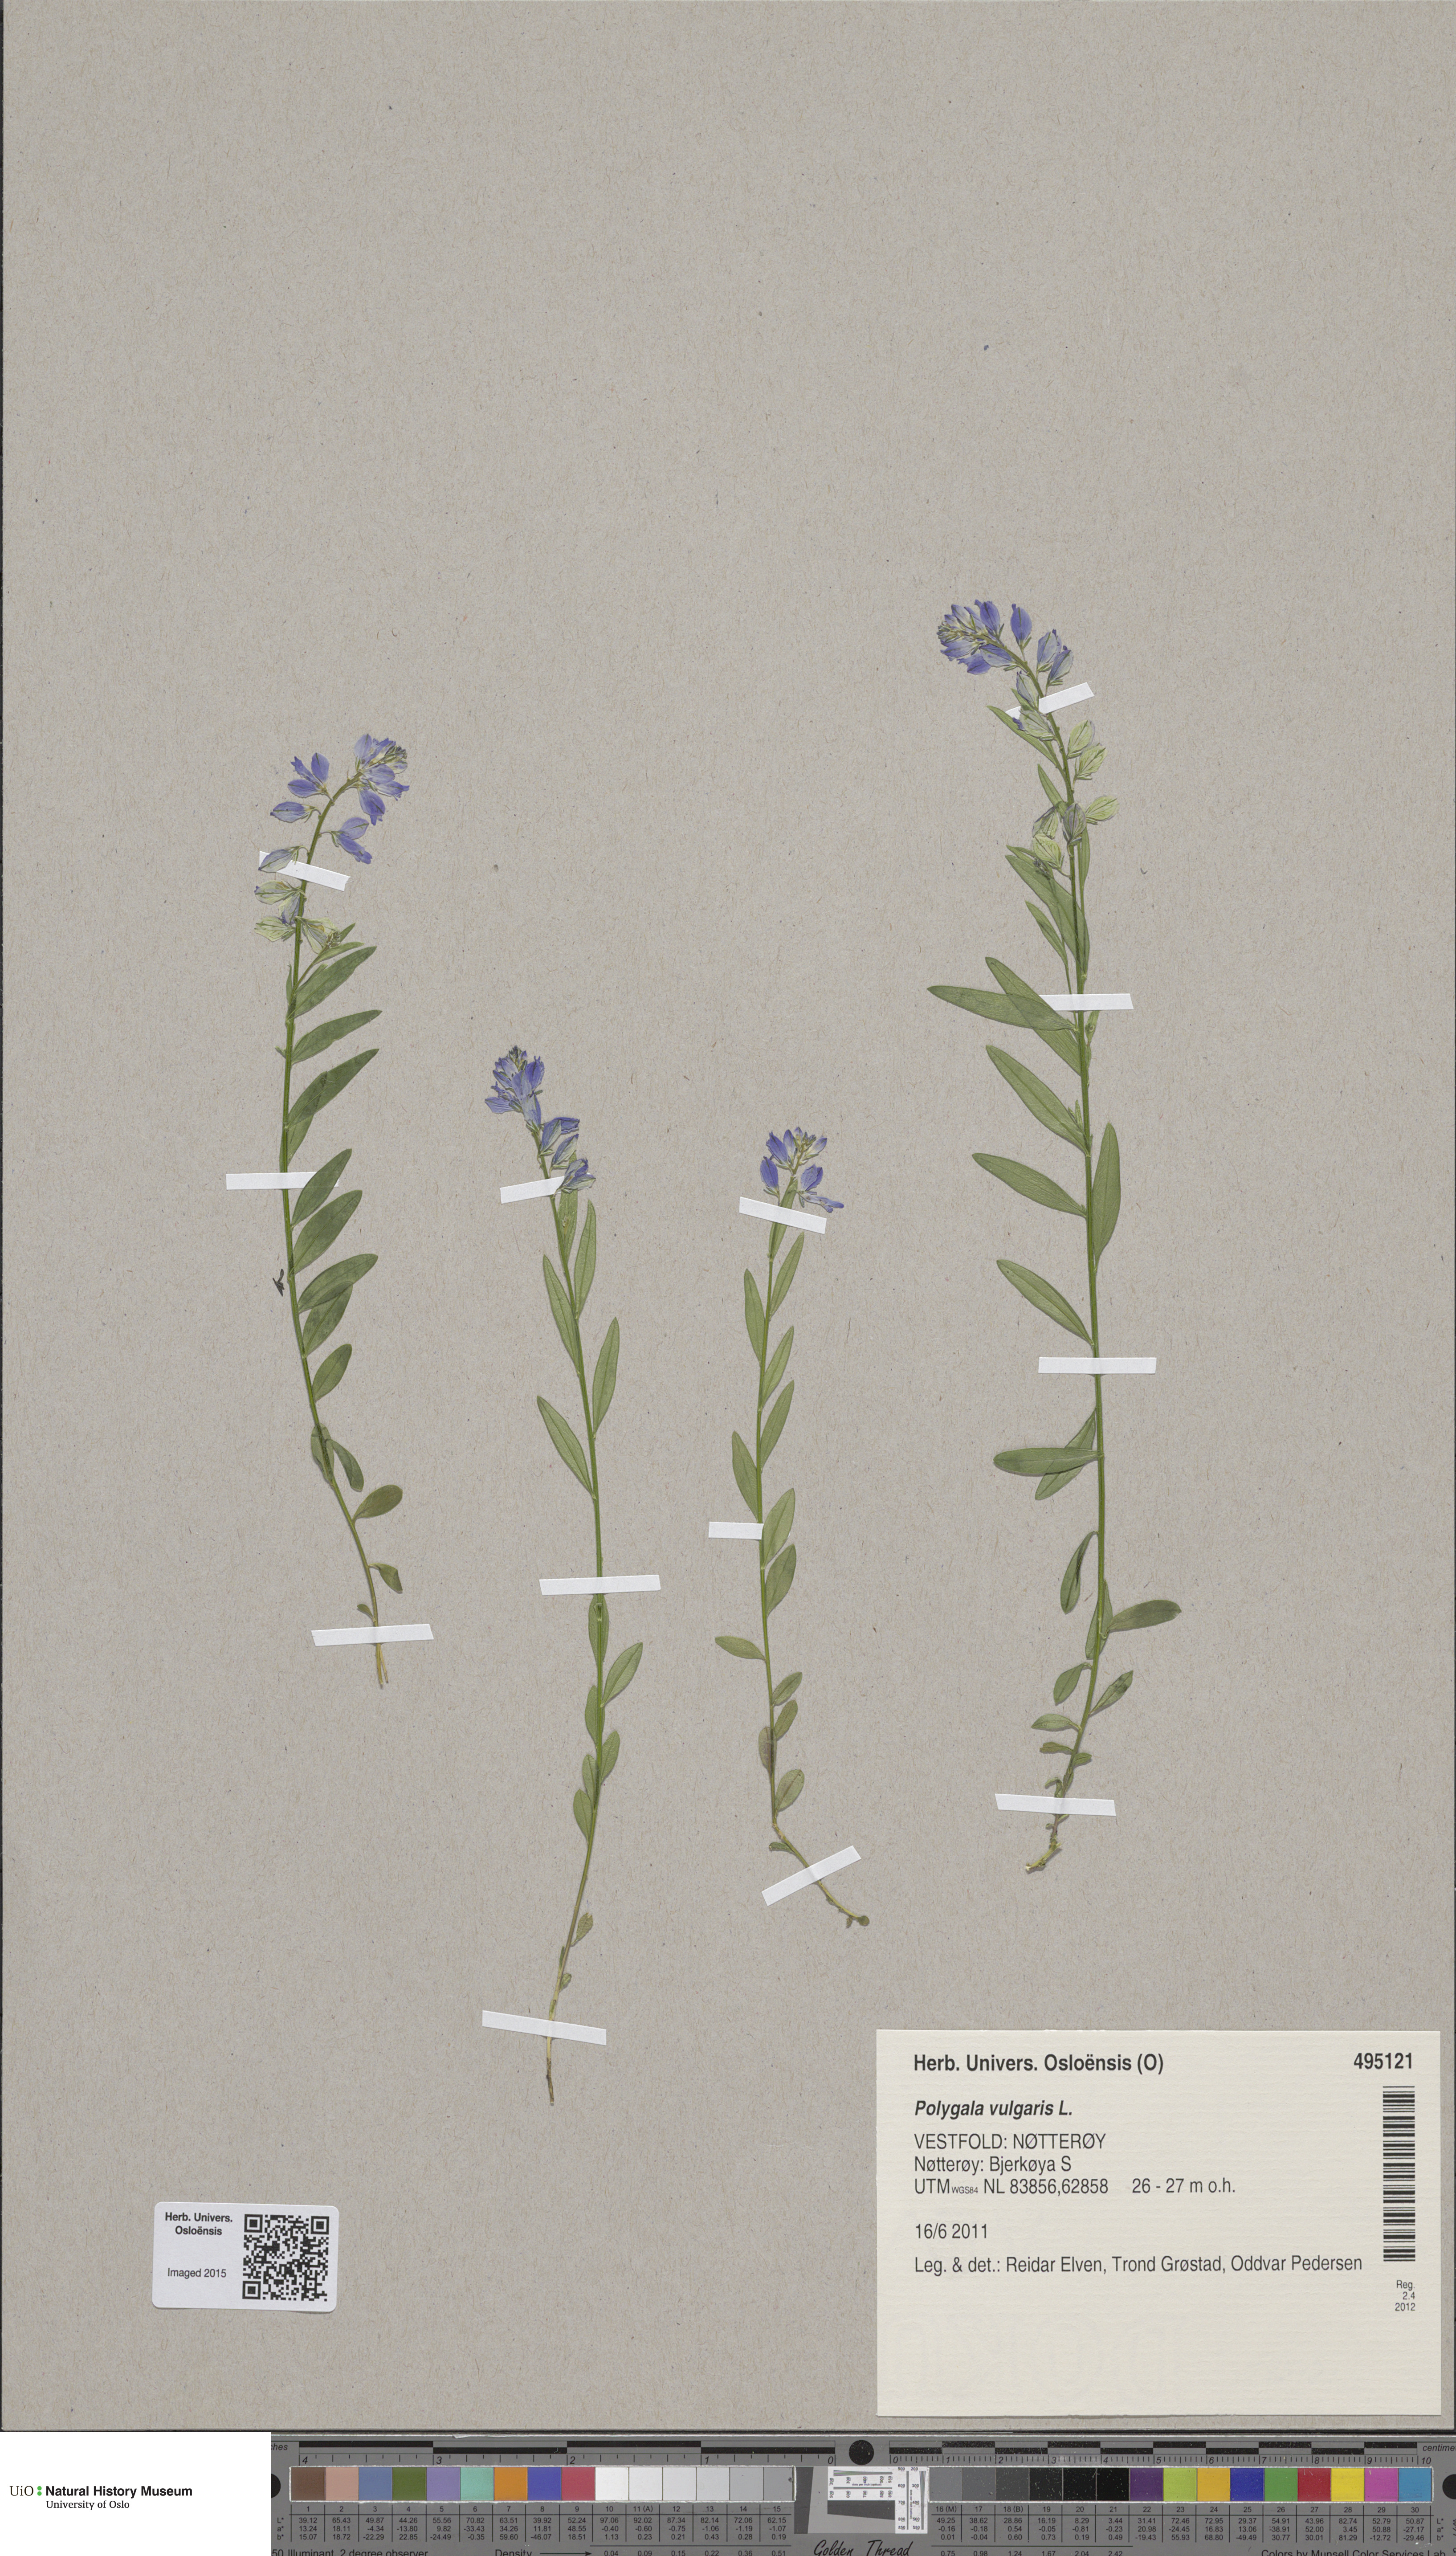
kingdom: Plantae
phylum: Tracheophyta
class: Magnoliopsida
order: Fabales
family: Polygalaceae
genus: Polygala
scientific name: Polygala vulgaris
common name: Common milkwort
